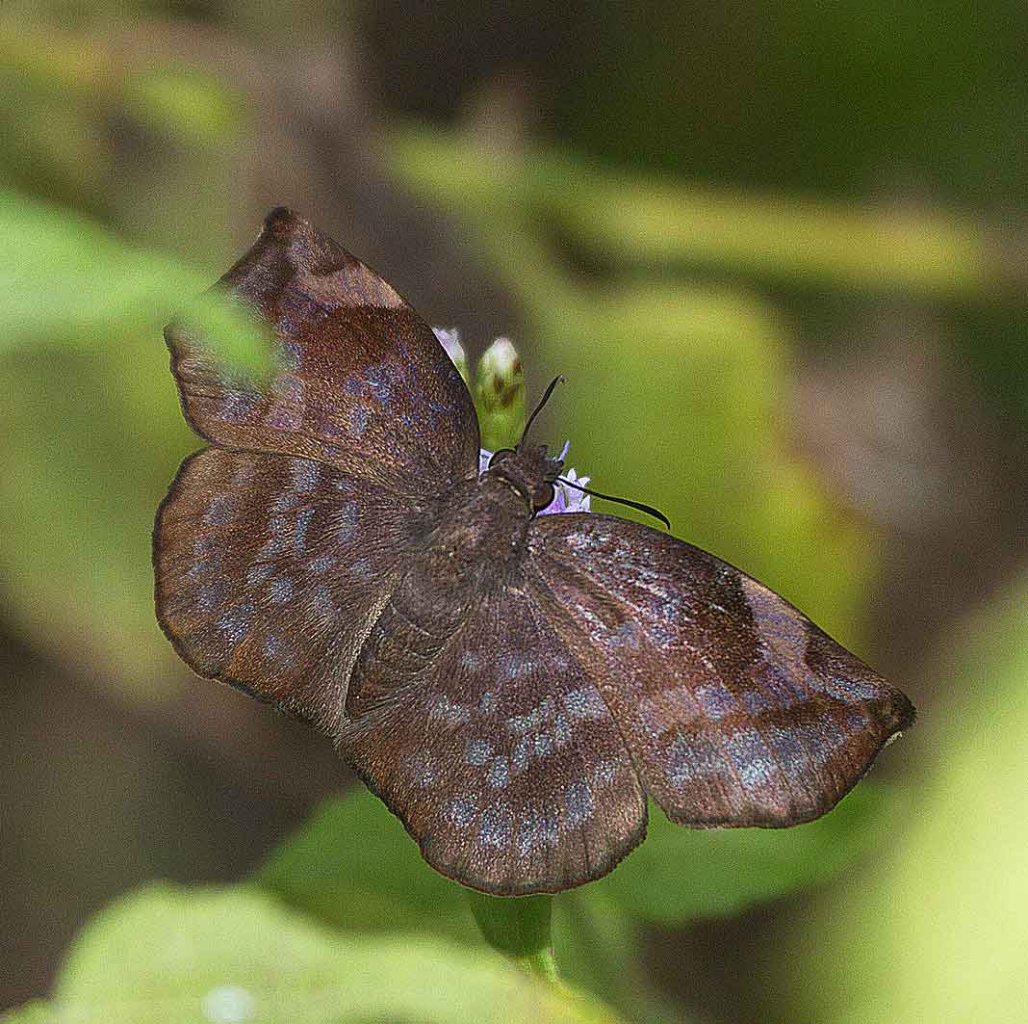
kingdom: Animalia
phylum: Arthropoda
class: Insecta
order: Lepidoptera
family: Hesperiidae
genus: Achlyodes
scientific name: Achlyodes thraso
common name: Sickle-winged Skipper
